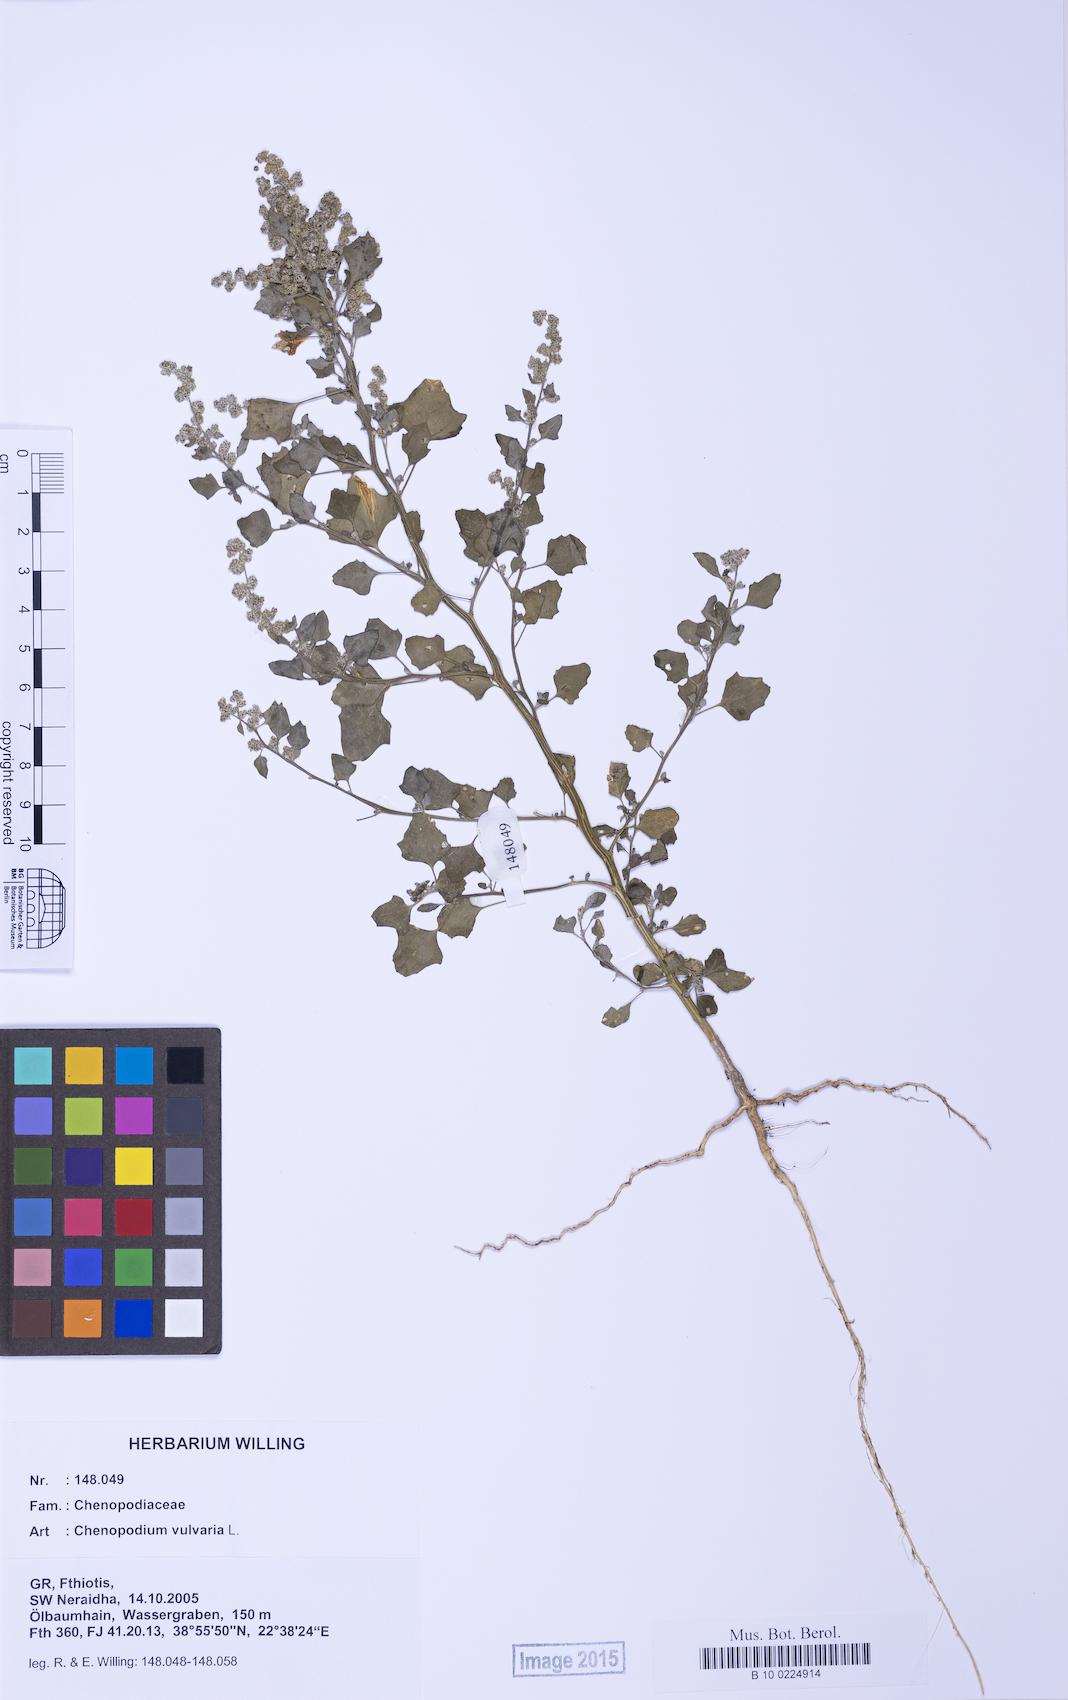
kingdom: Plantae
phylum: Tracheophyta
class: Magnoliopsida
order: Caryophyllales
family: Amaranthaceae
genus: Chenopodium
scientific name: Chenopodium vulvaria
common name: Stinking goosefoot
